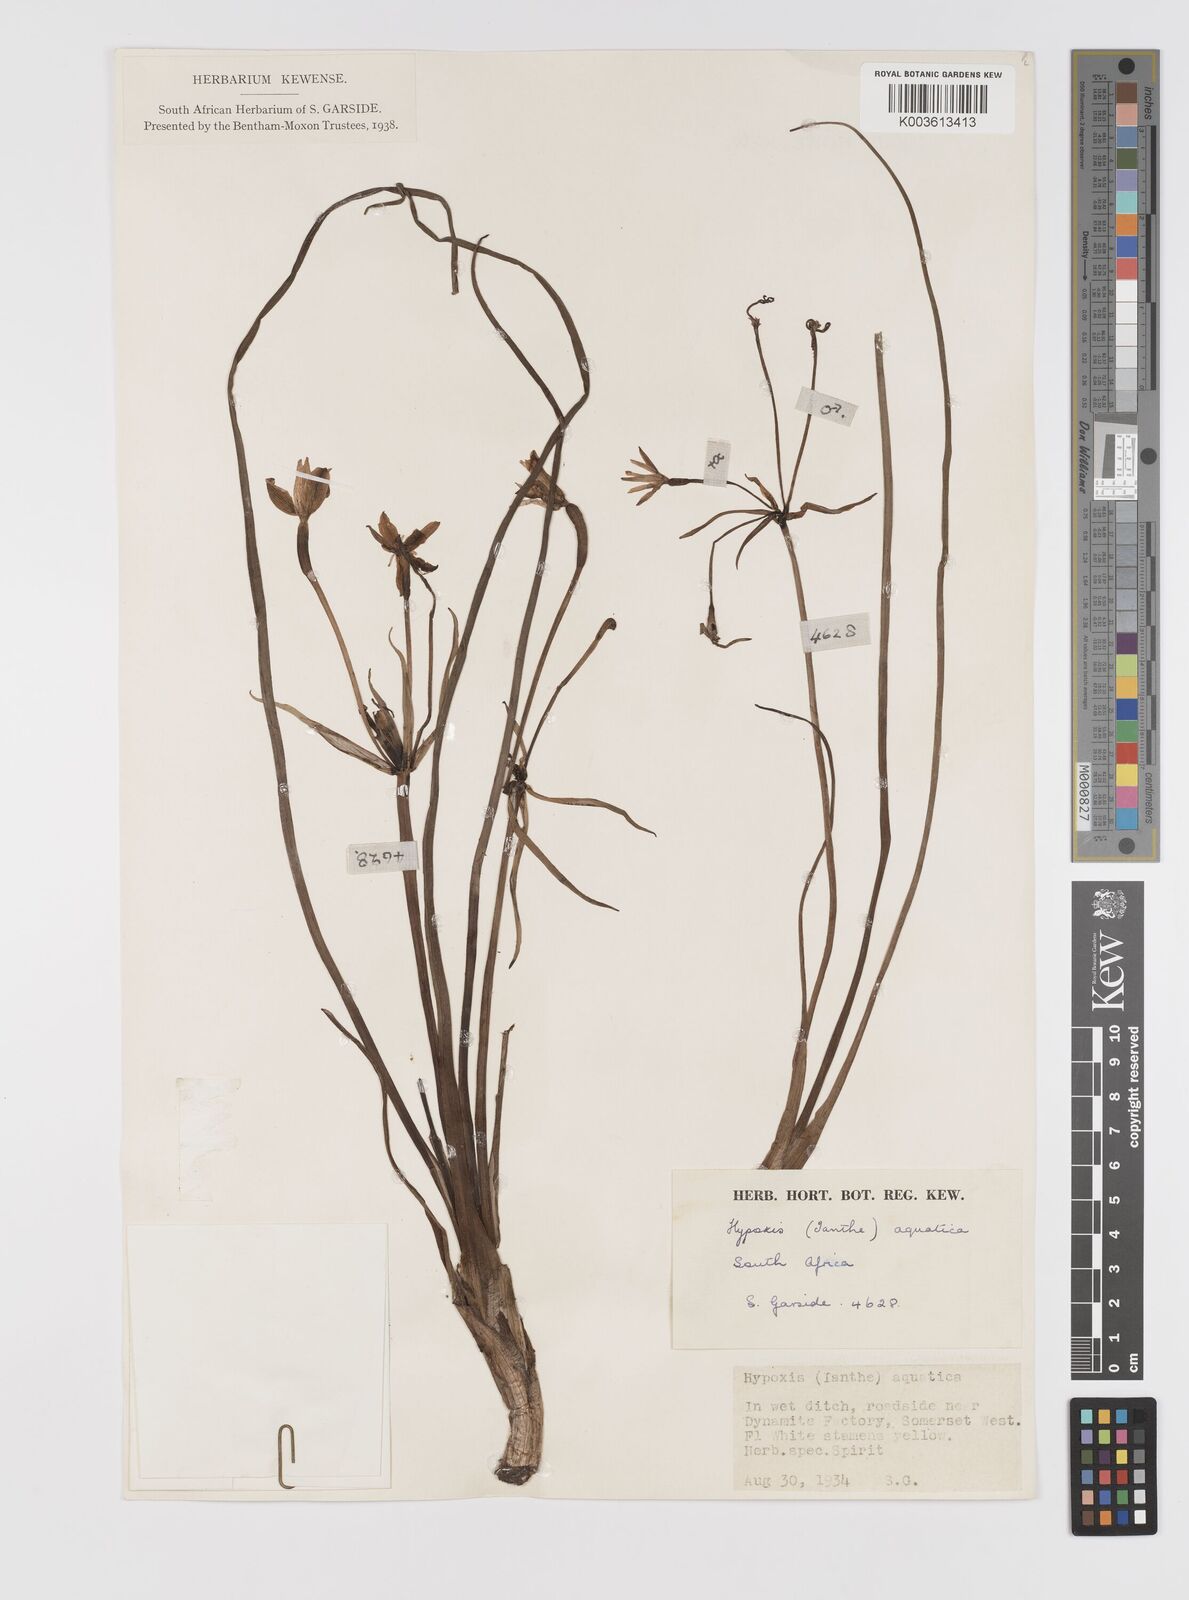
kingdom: Plantae
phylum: Tracheophyta
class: Liliopsida
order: Asparagales
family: Hypoxidaceae
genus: Pauridia
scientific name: Pauridia aquatica
